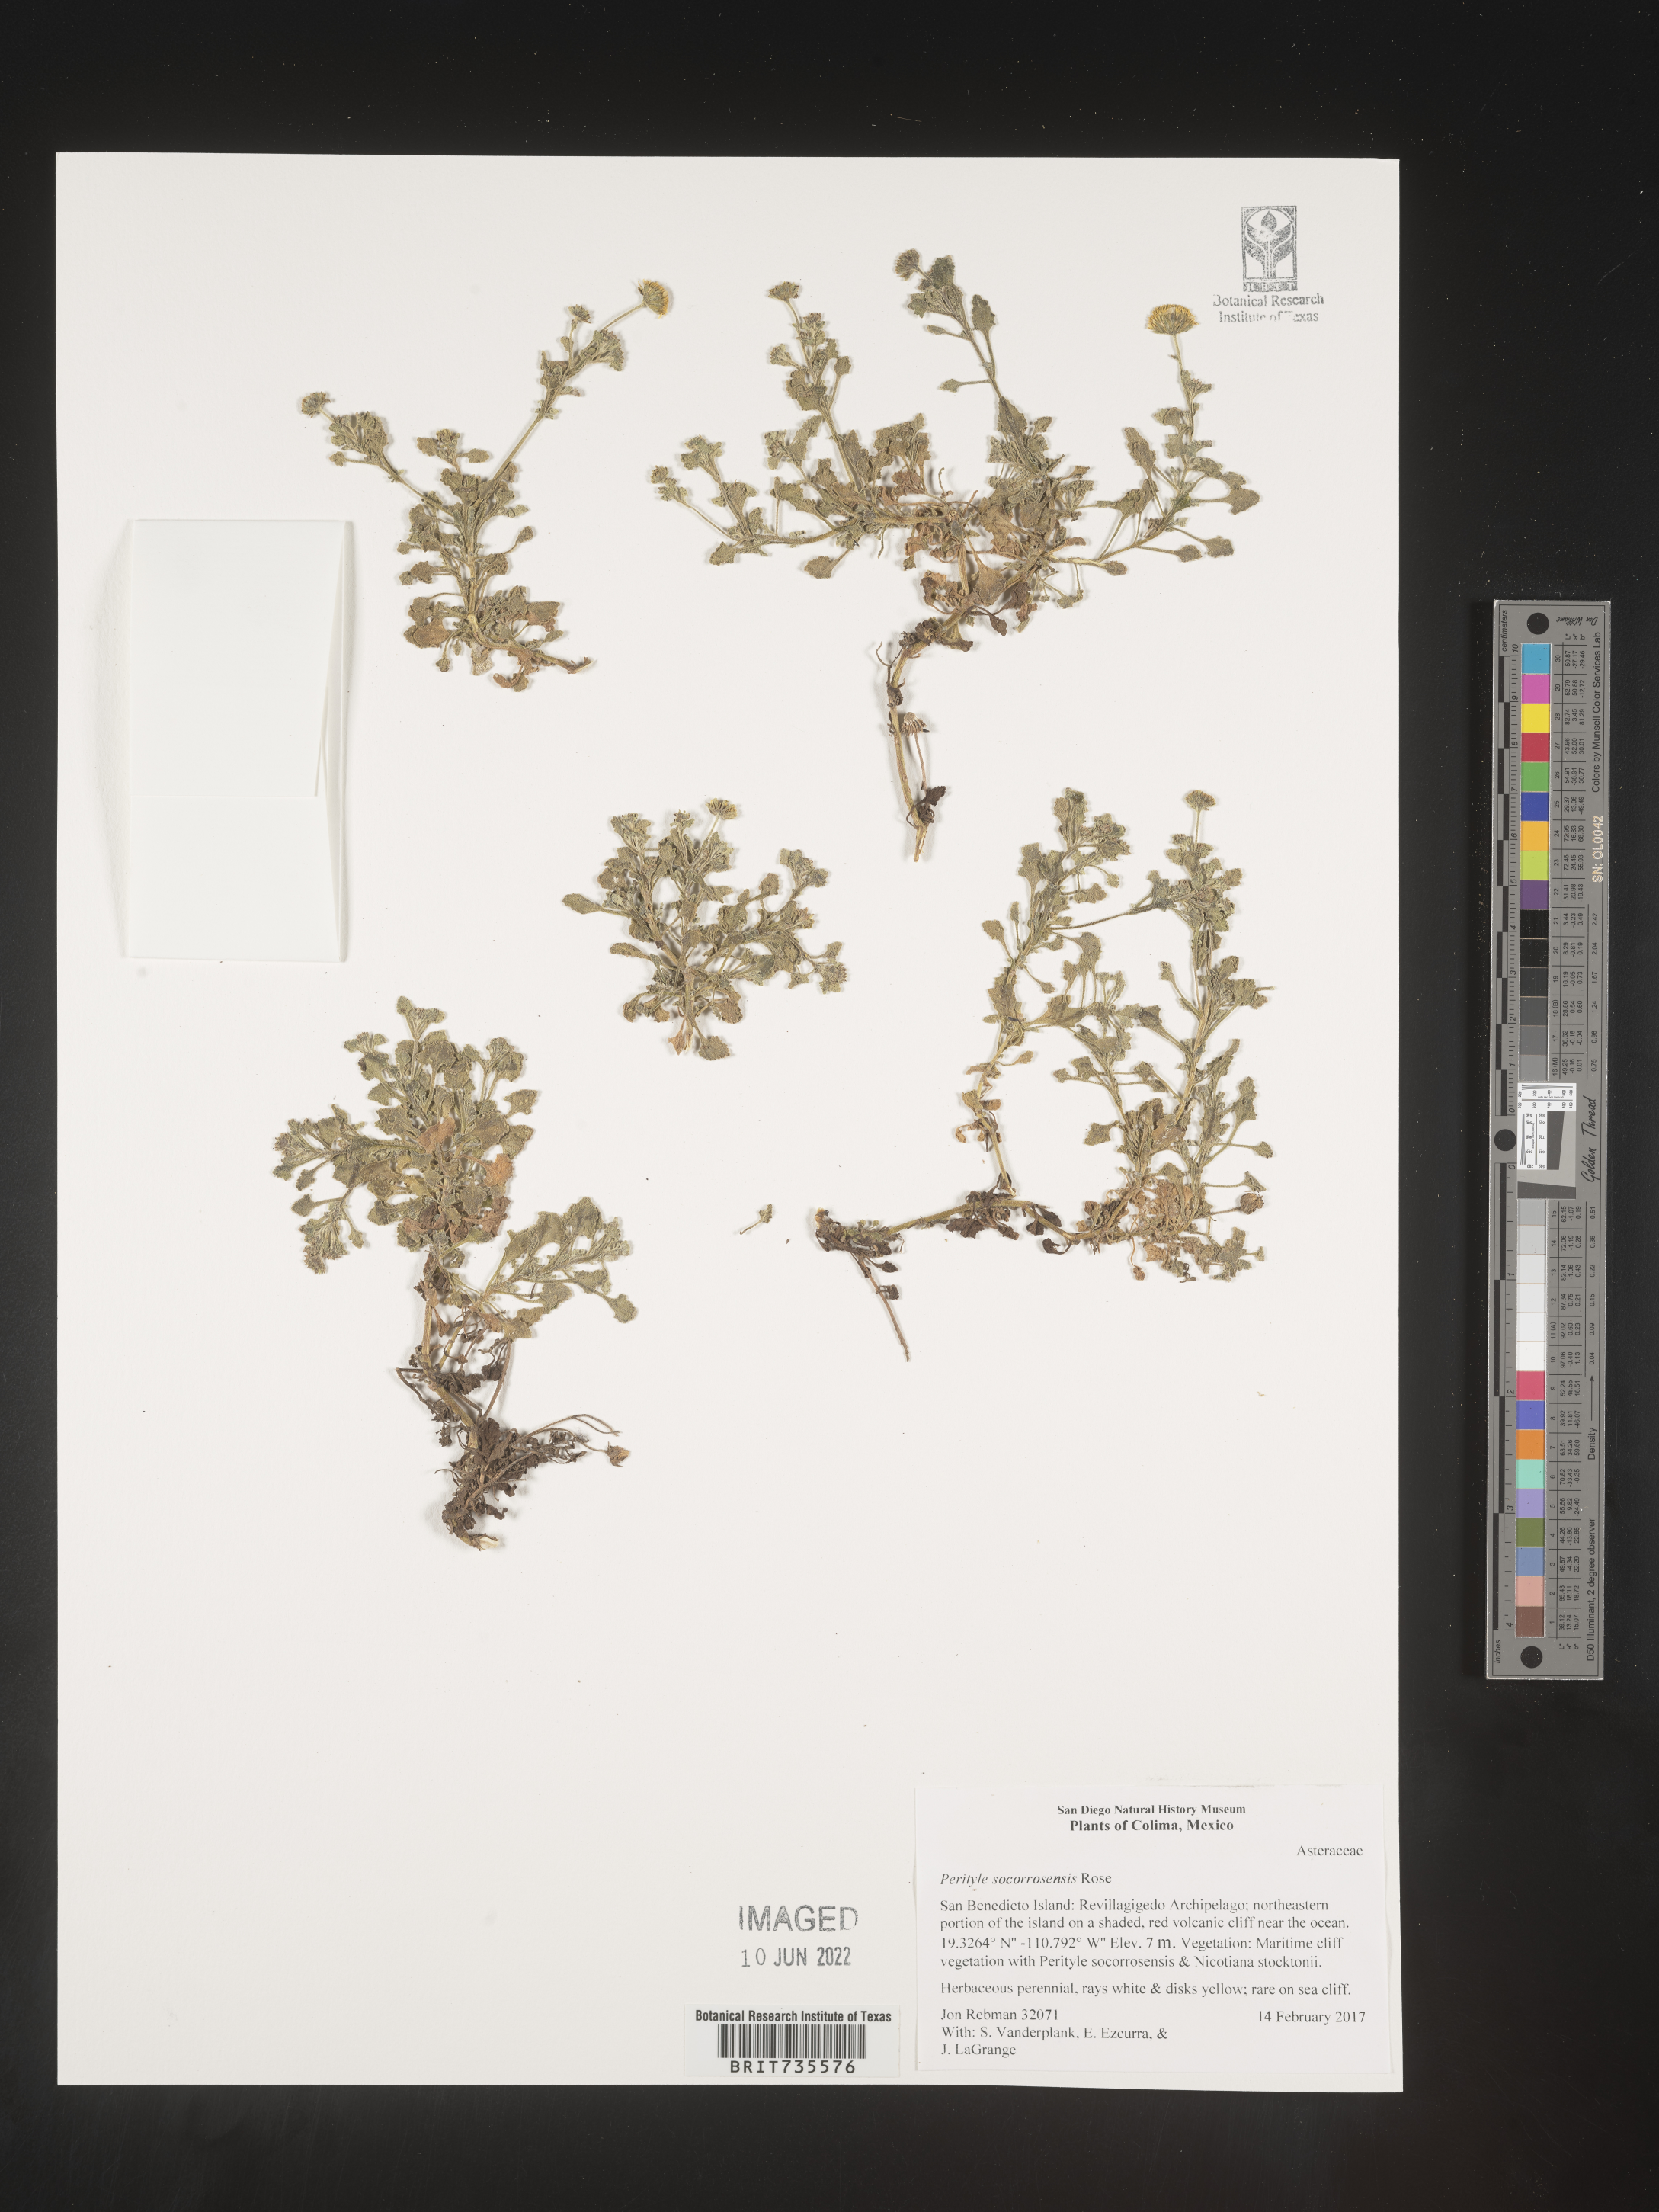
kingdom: Plantae
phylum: Tracheophyta
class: Magnoliopsida
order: Asterales
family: Asteraceae
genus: Perityle
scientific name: Perityle
